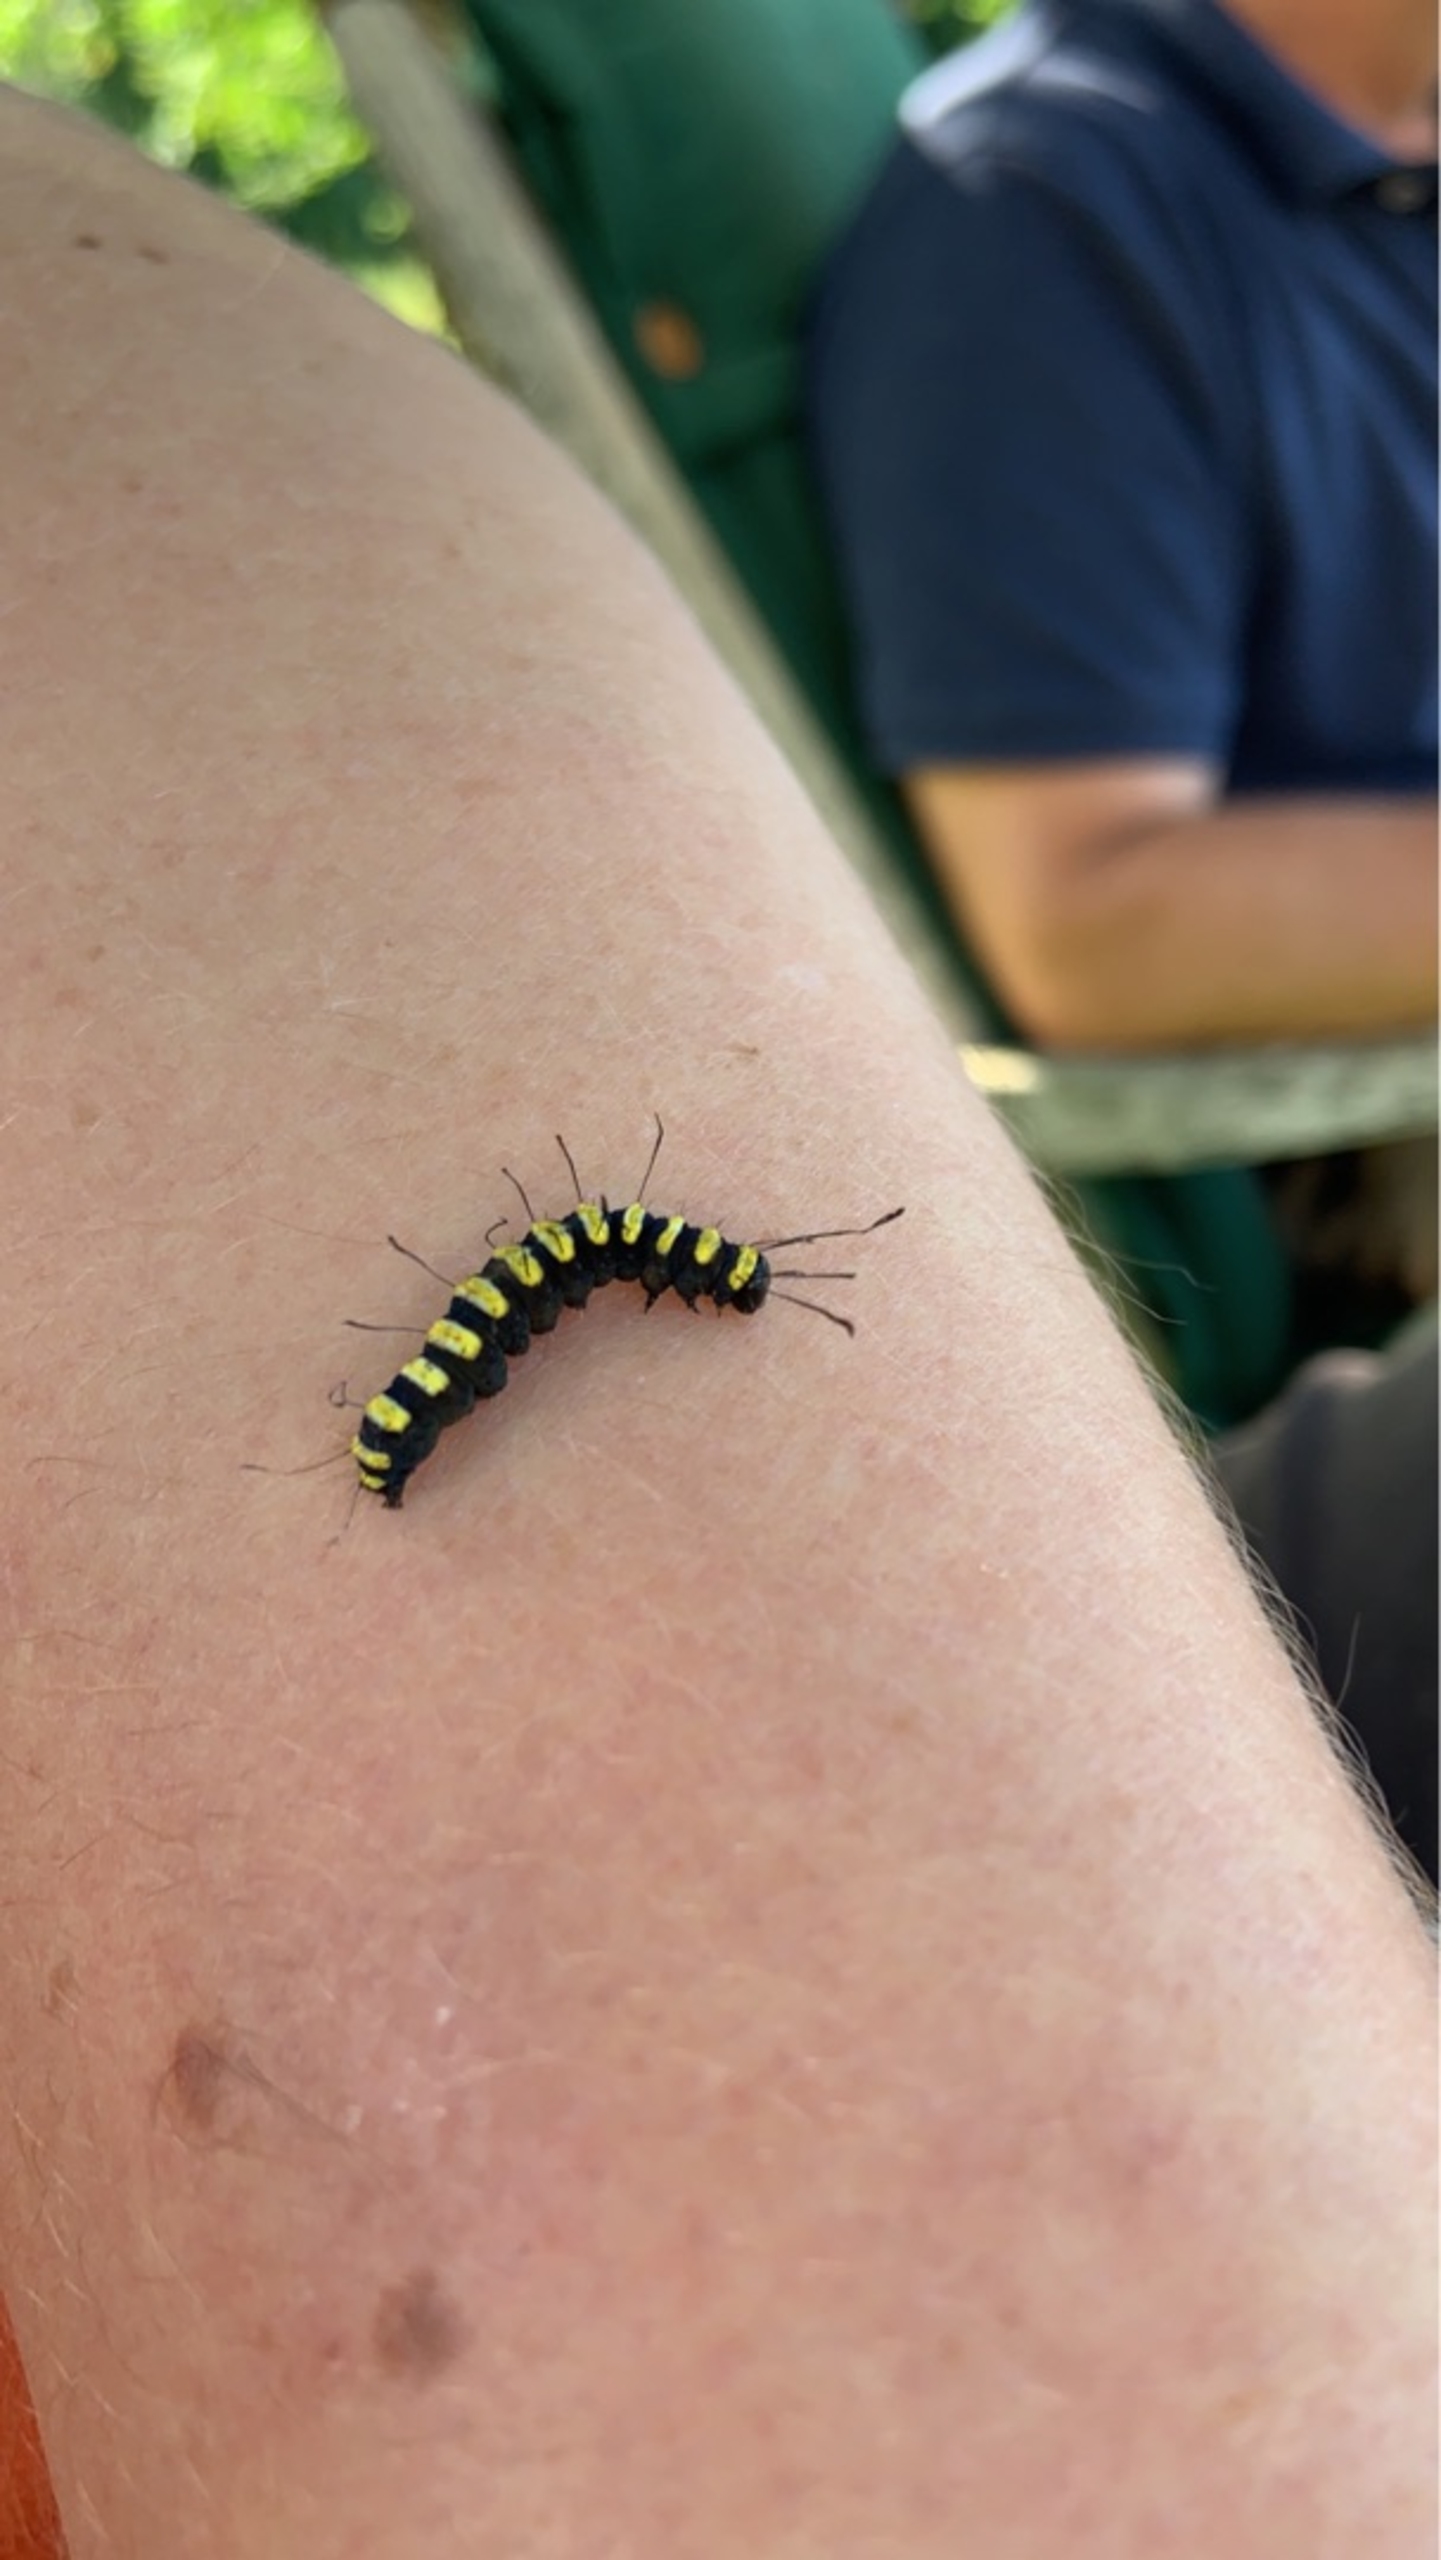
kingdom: Animalia
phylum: Arthropoda
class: Insecta
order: Lepidoptera
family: Noctuidae
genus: Acronicta
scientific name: Acronicta alni
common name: Kølleugle
